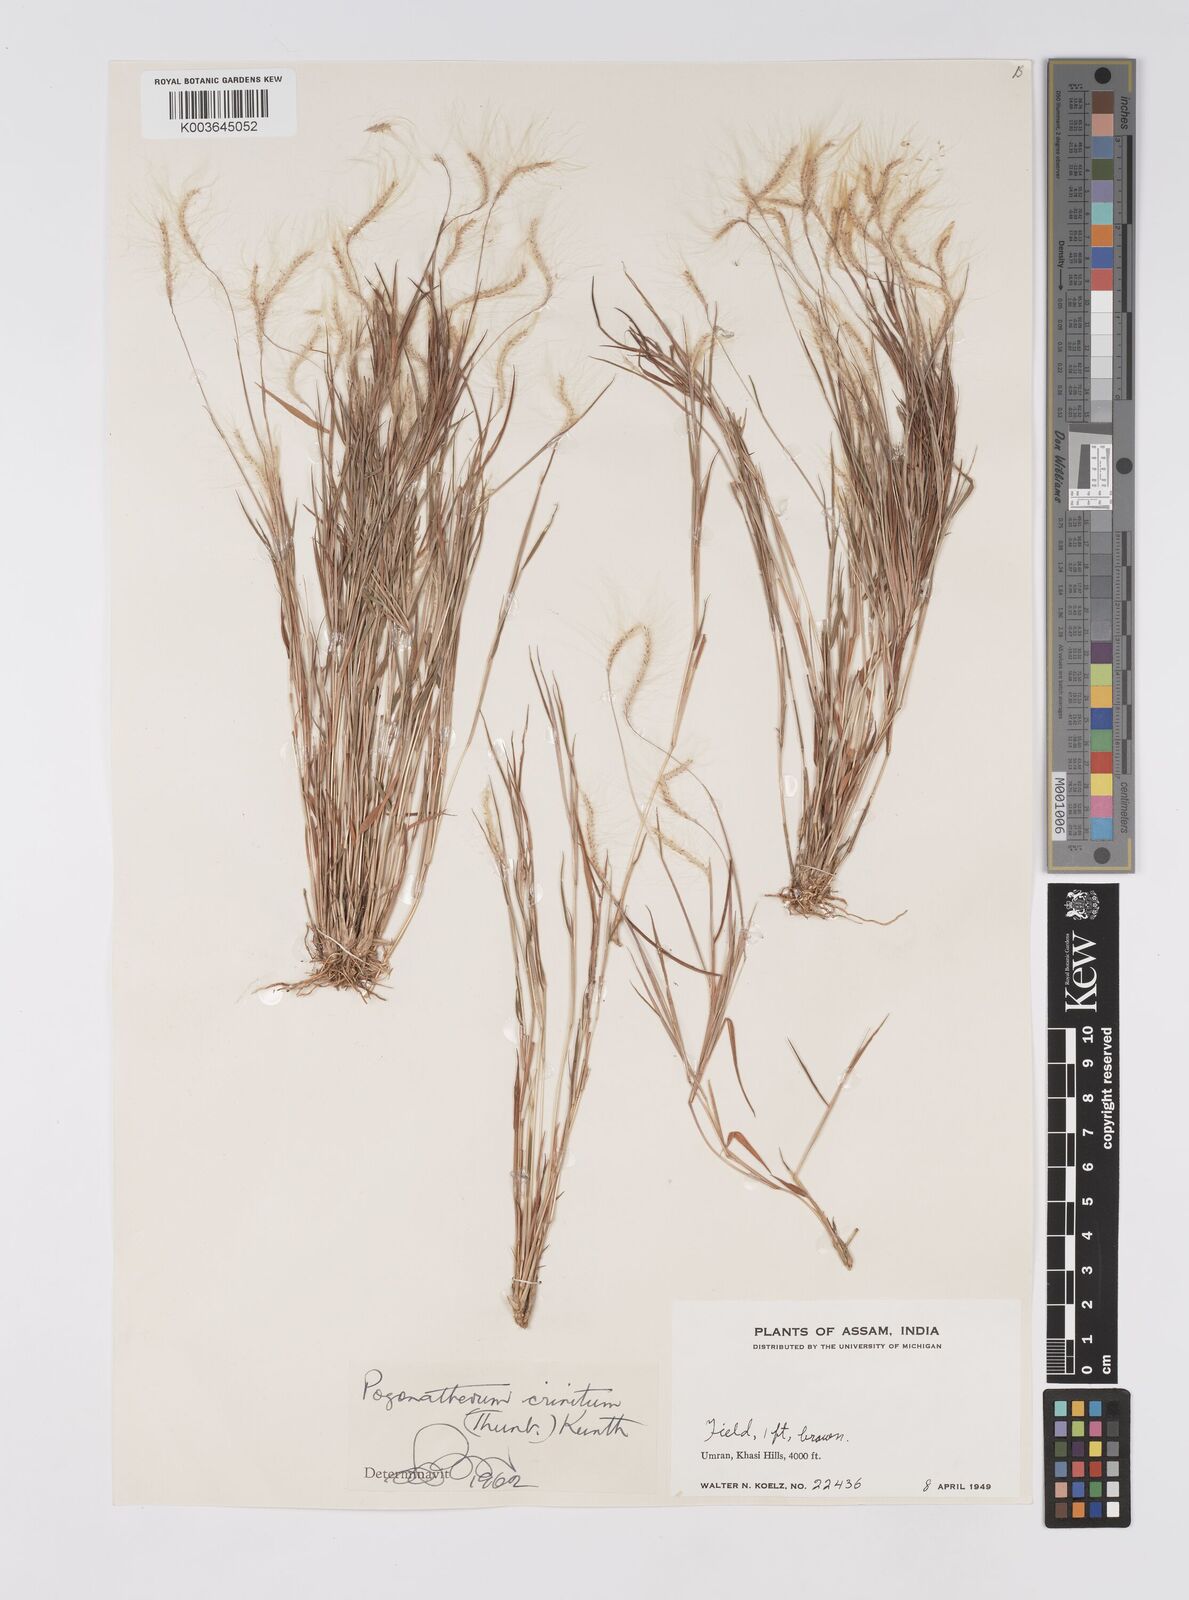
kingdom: Plantae
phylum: Tracheophyta
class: Liliopsida
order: Poales
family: Poaceae
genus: Pogonatherum
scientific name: Pogonatherum crinitum
